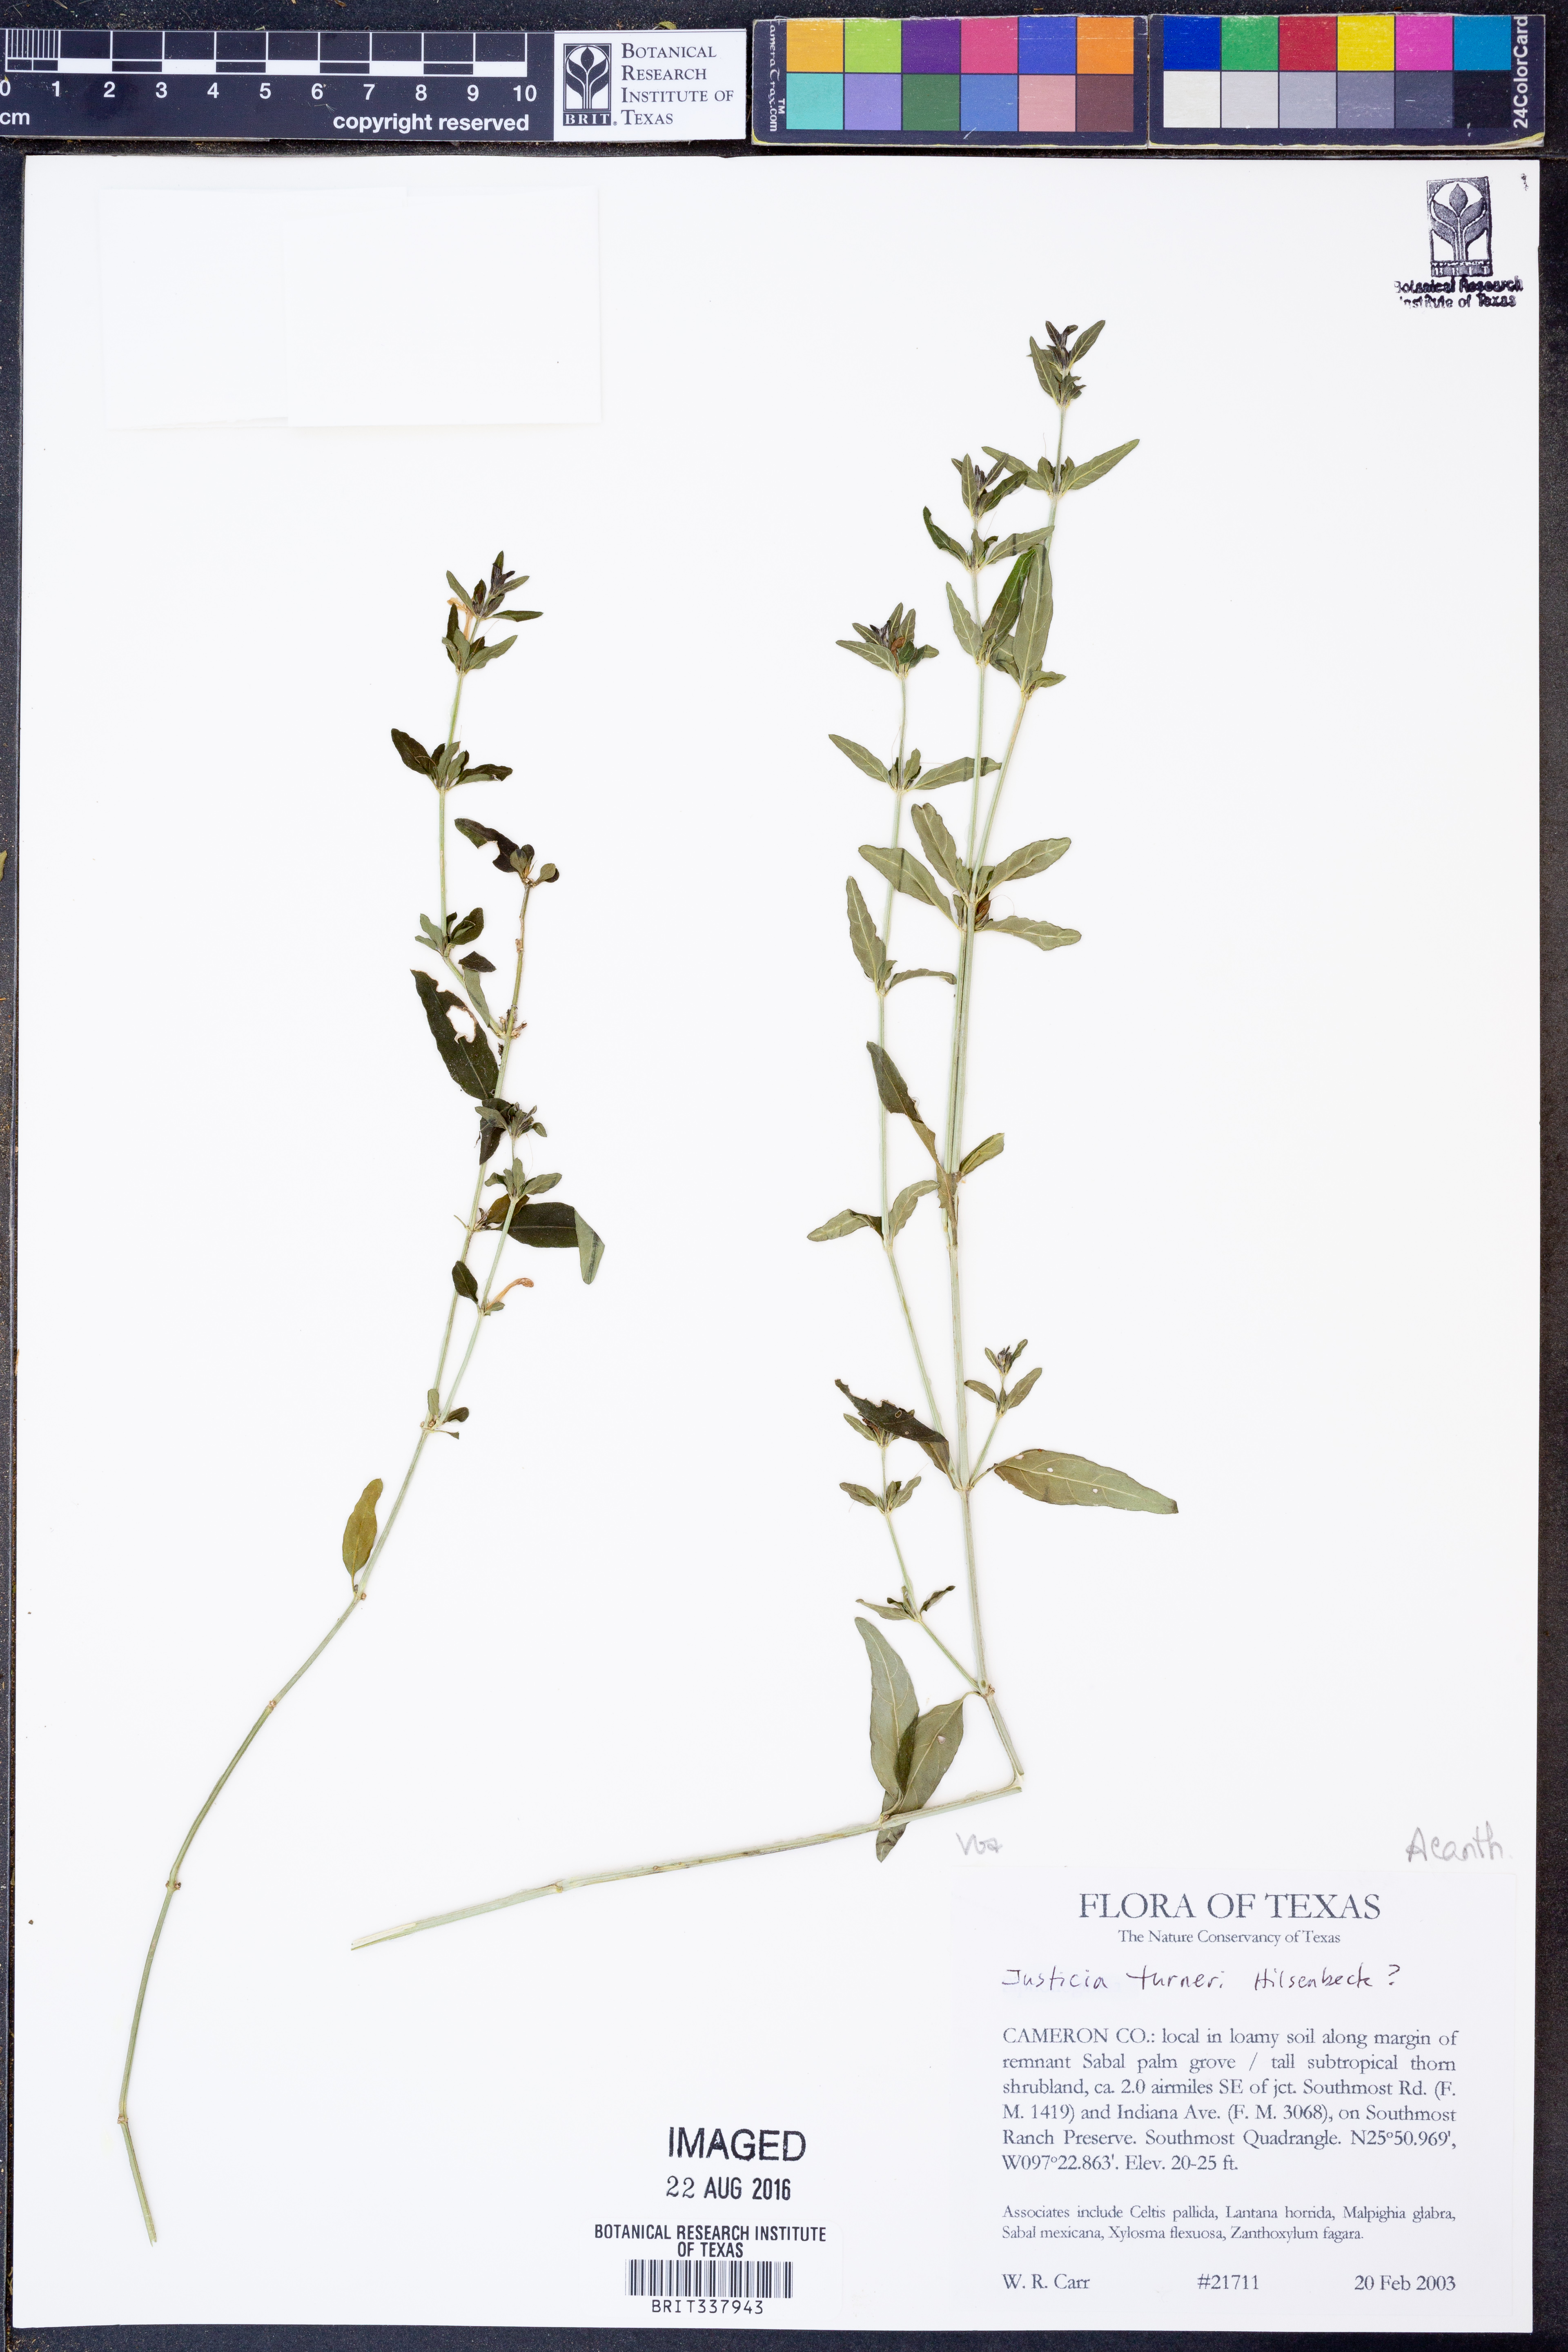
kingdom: Plantae
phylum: Tracheophyta
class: Magnoliopsida
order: Lamiales
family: Acanthaceae
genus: Justicia
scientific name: Justicia turneri
